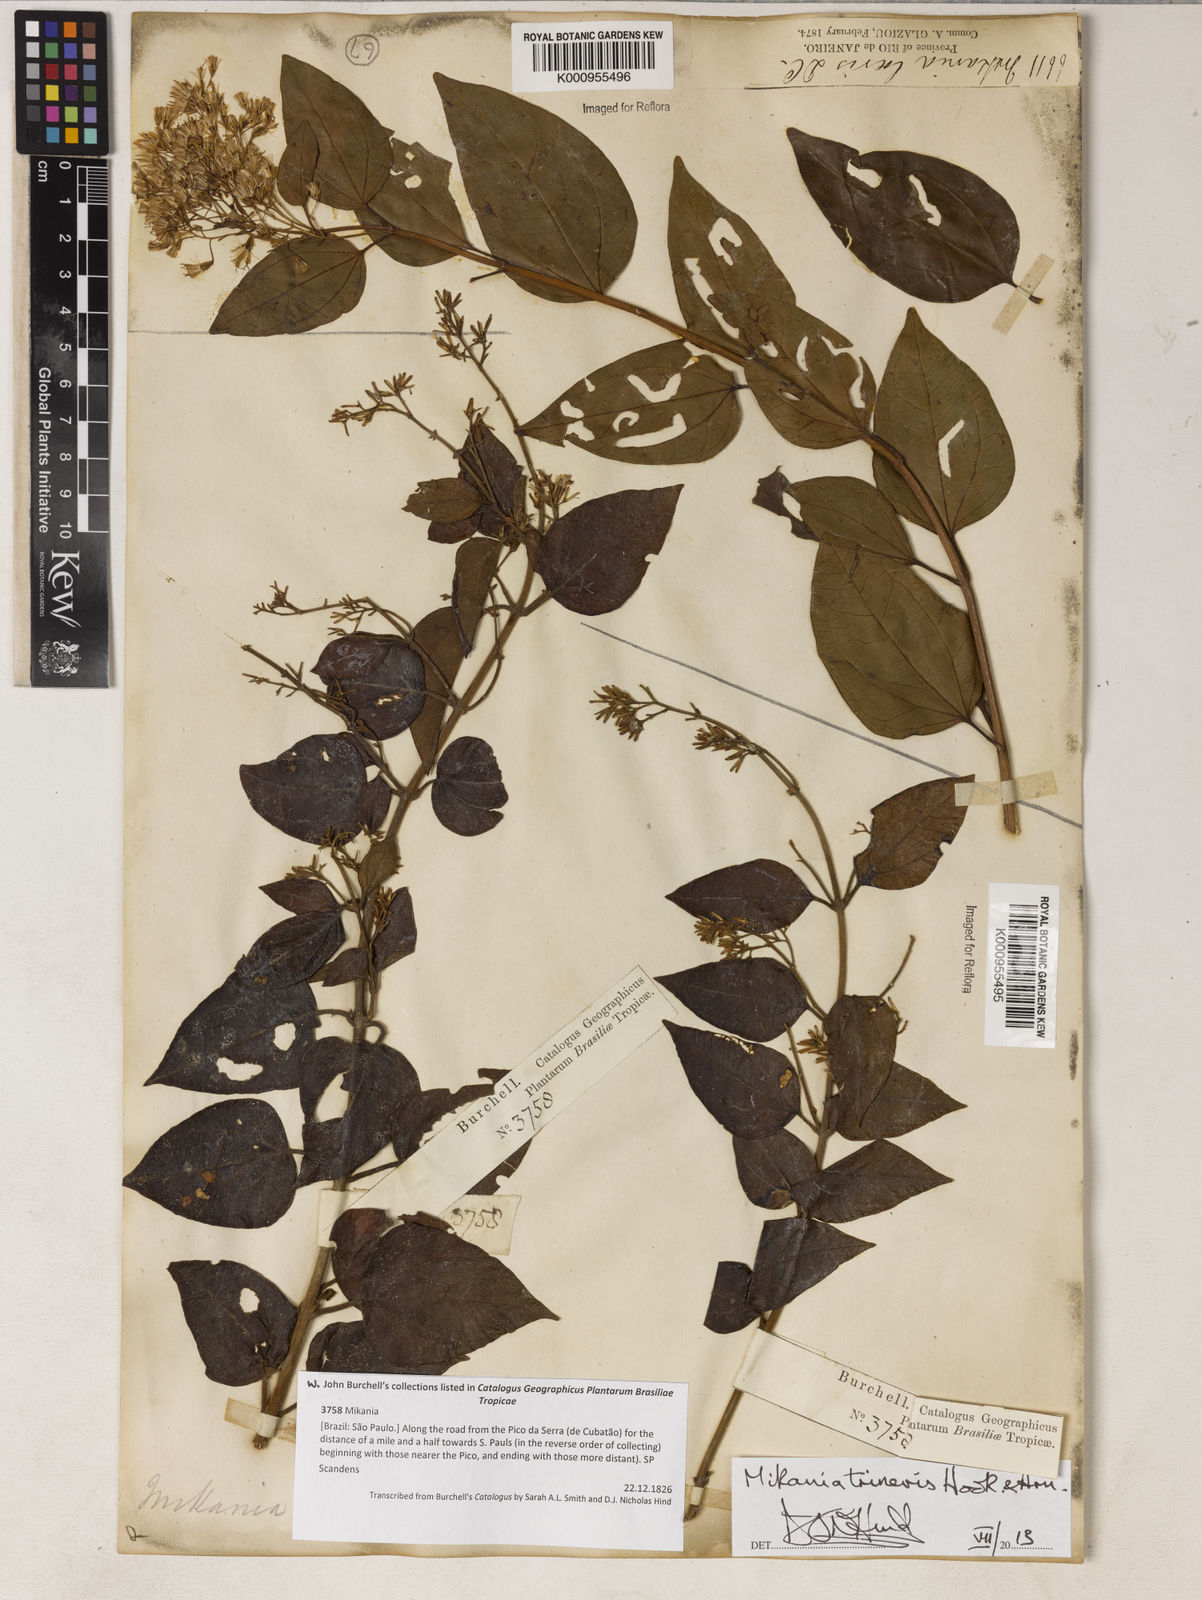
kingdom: Plantae
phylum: Tracheophyta
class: Magnoliopsida
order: Asterales
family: Asteraceae
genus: Mikania
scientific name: Mikania trinervis
